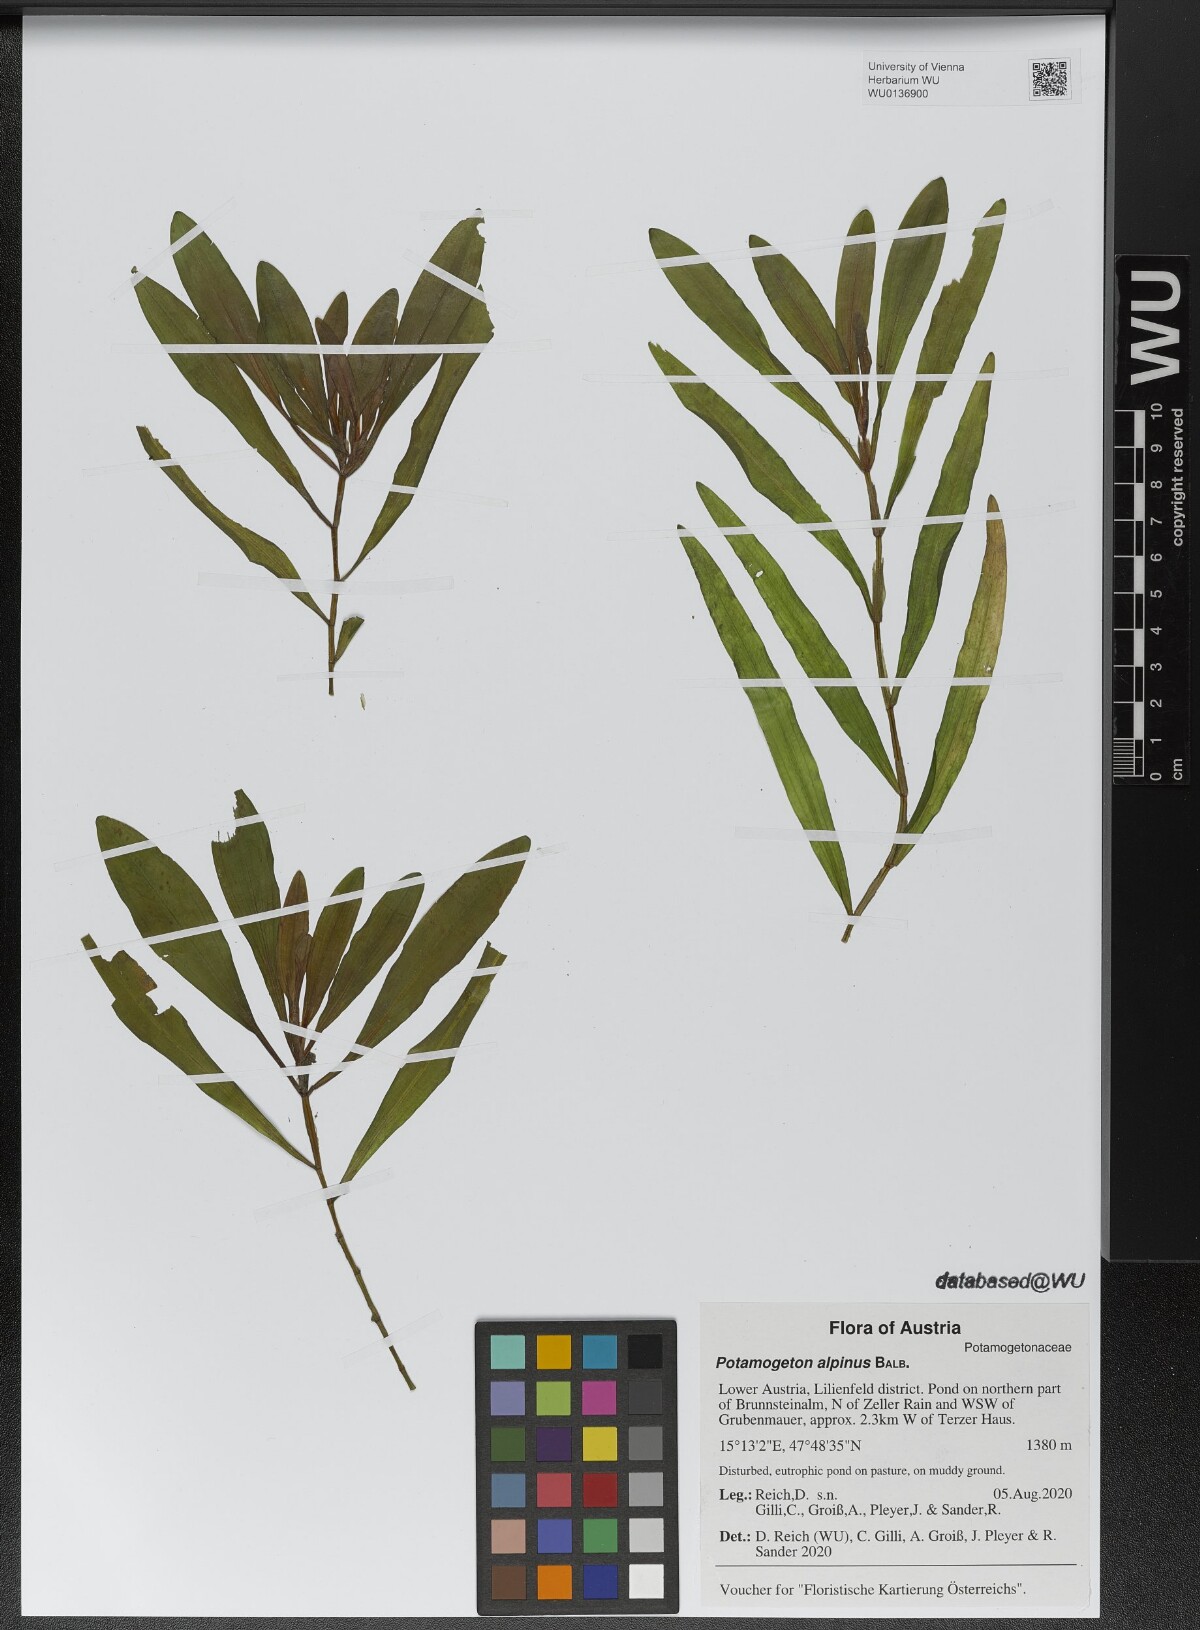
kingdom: Plantae
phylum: Tracheophyta
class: Liliopsida
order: Alismatales
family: Potamogetonaceae
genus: Potamogeton
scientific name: Potamogeton alpinus
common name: Red pondweed
